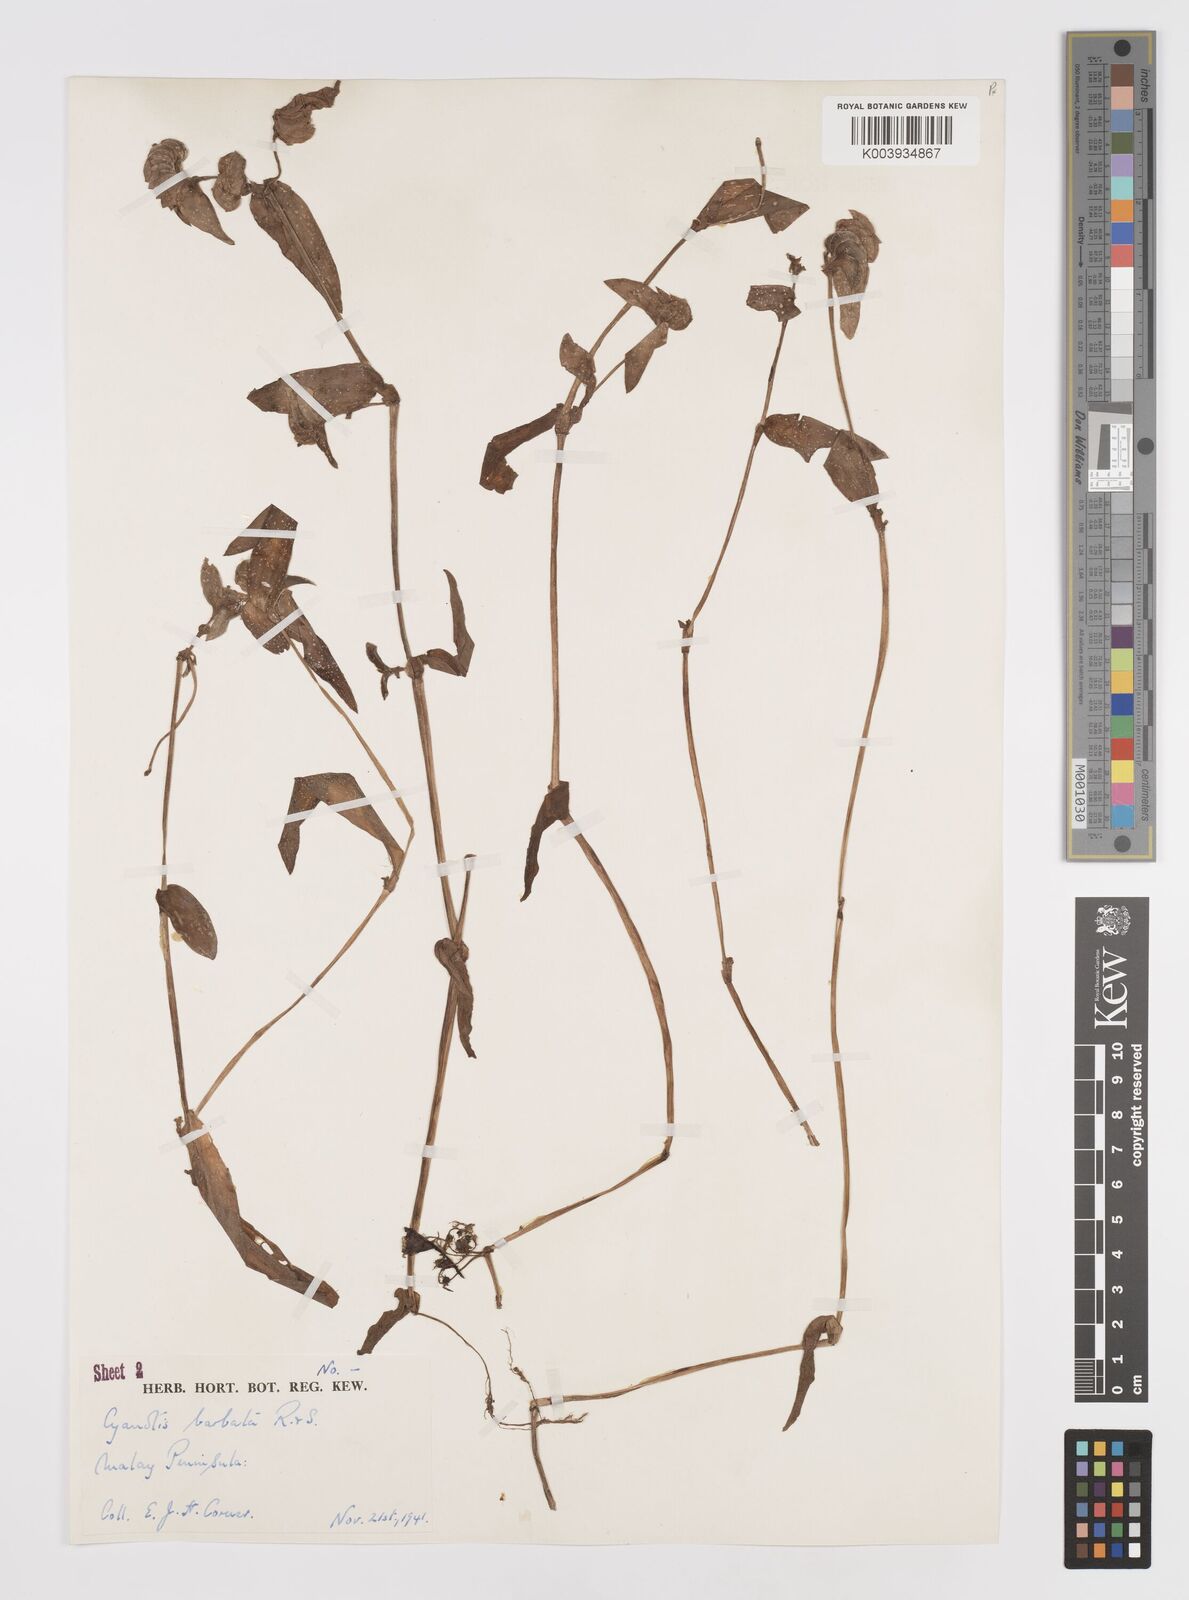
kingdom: Plantae
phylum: Tracheophyta
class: Liliopsida
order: Commelinales
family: Commelinaceae
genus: Cyanotis
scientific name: Cyanotis cristata
